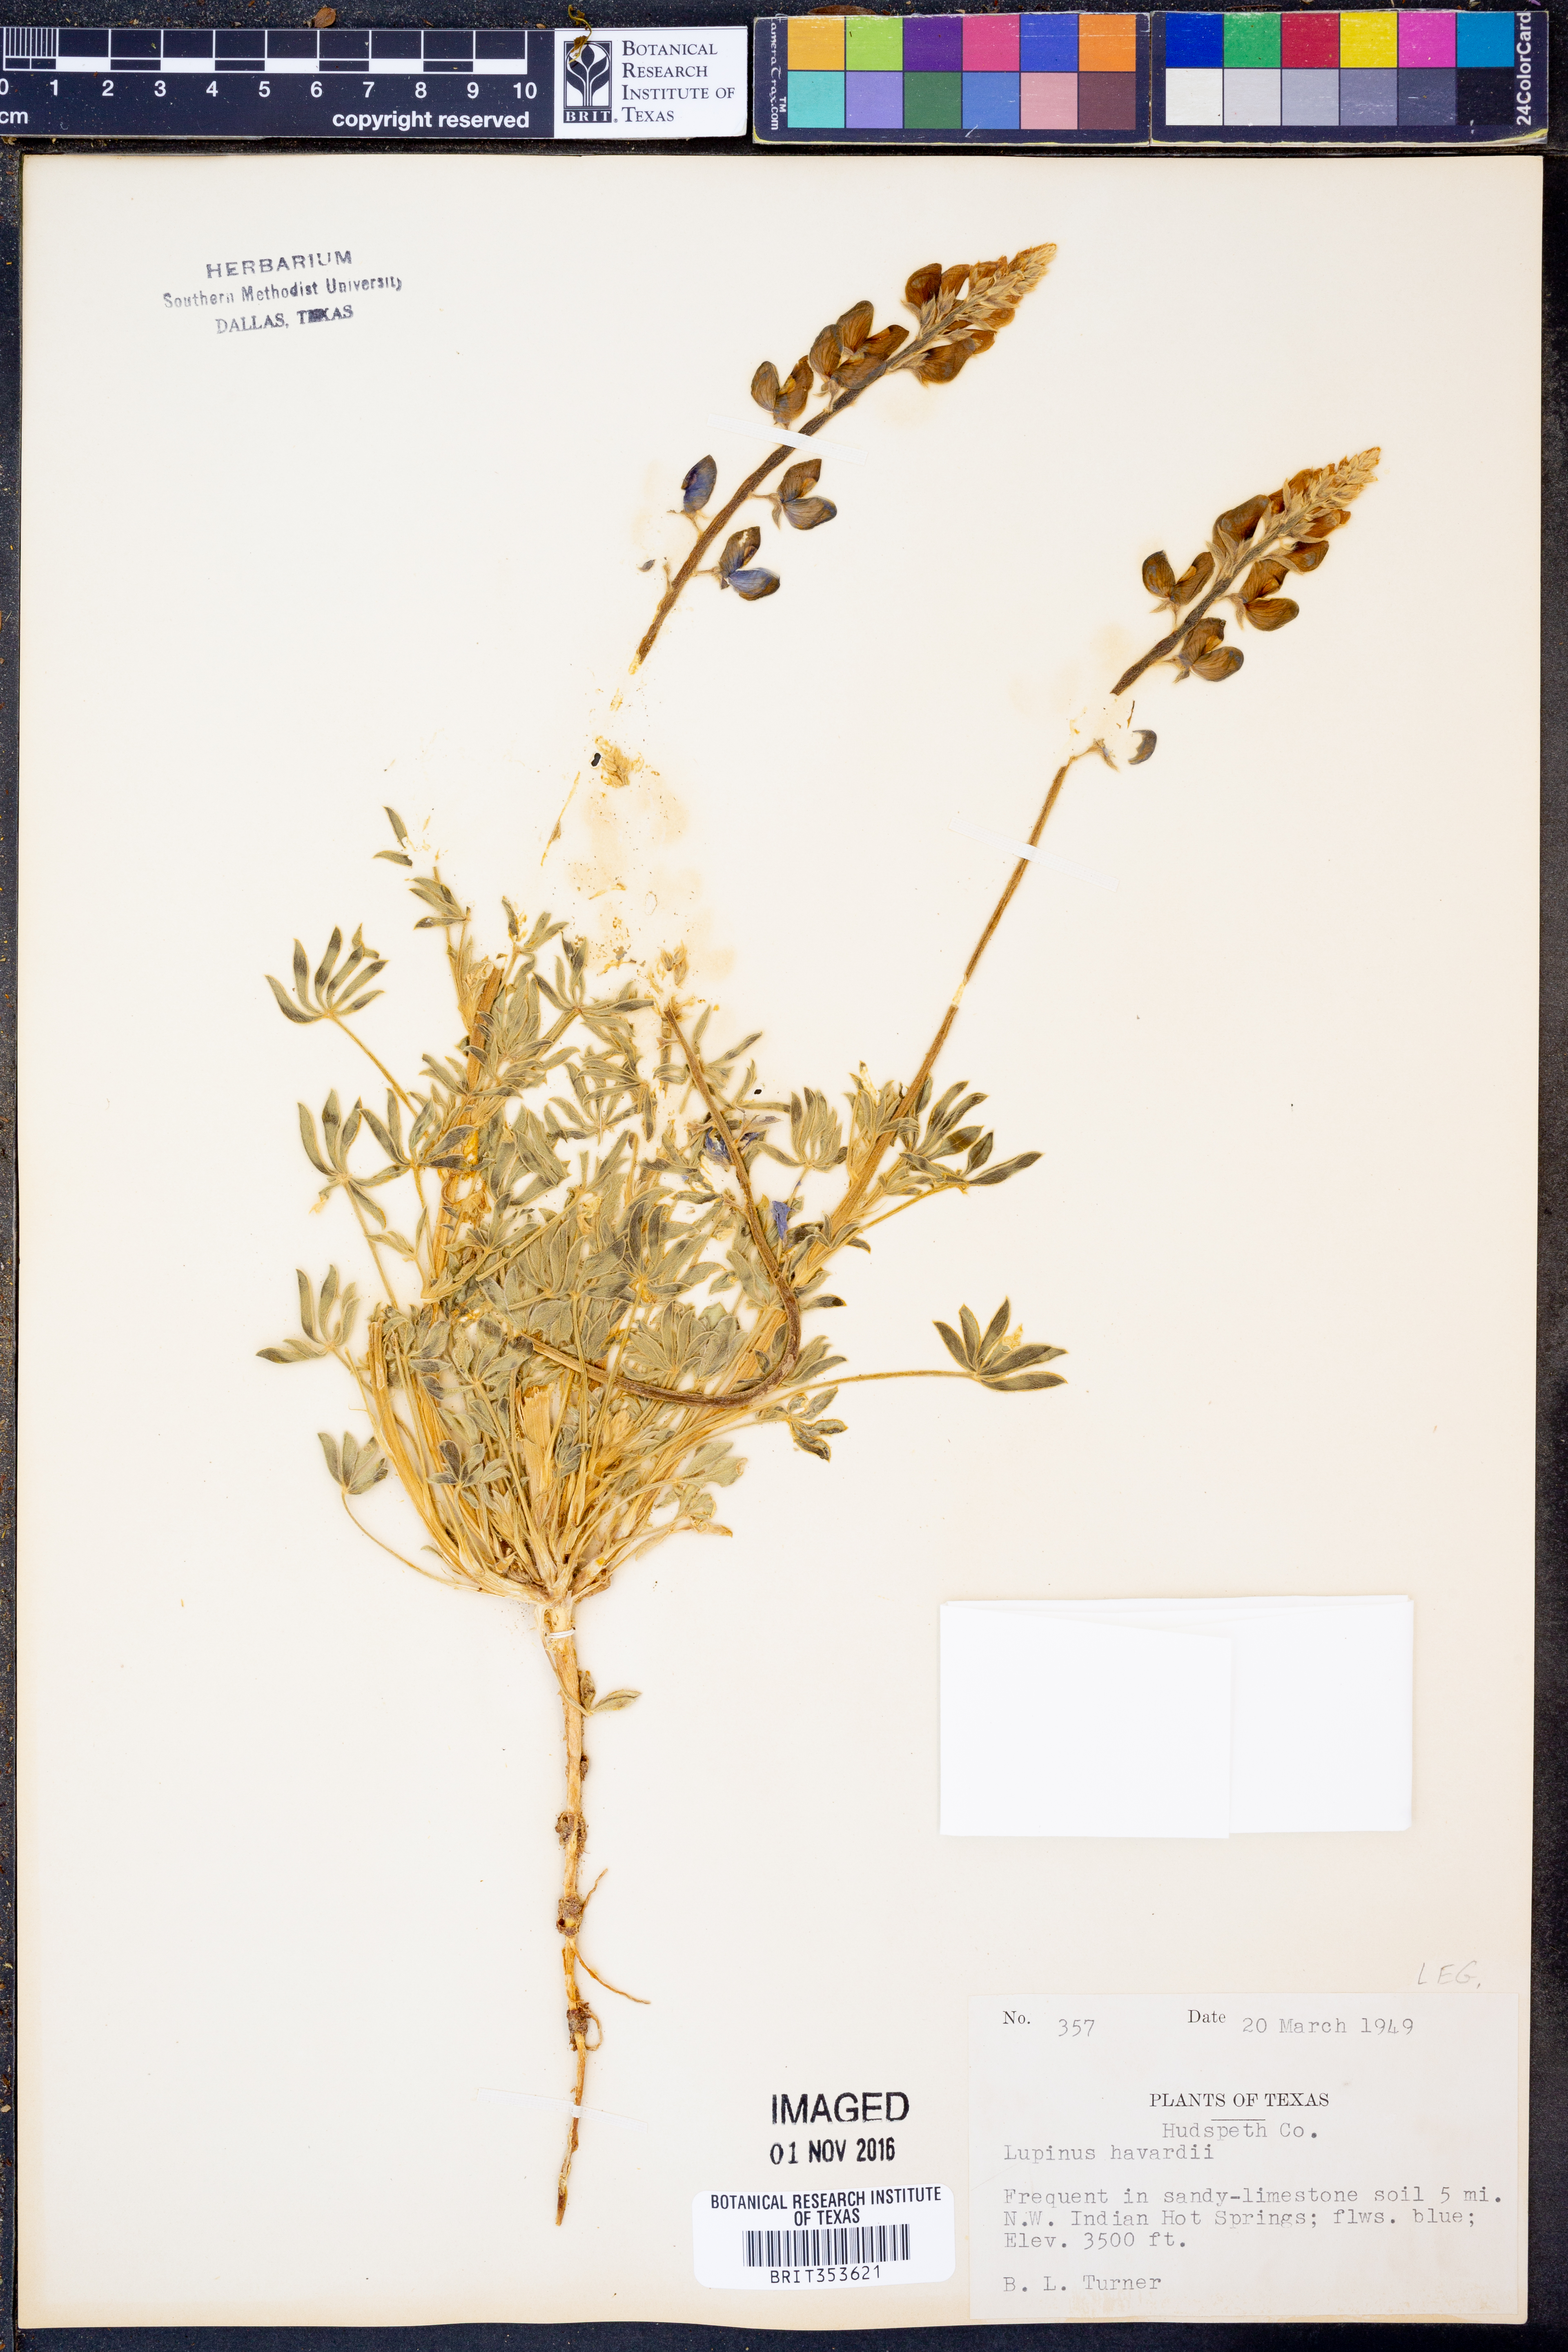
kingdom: Plantae
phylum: Tracheophyta
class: Magnoliopsida
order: Fabales
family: Fabaceae
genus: Lupinus
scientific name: Lupinus havardii
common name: Chisos bluebonnet
